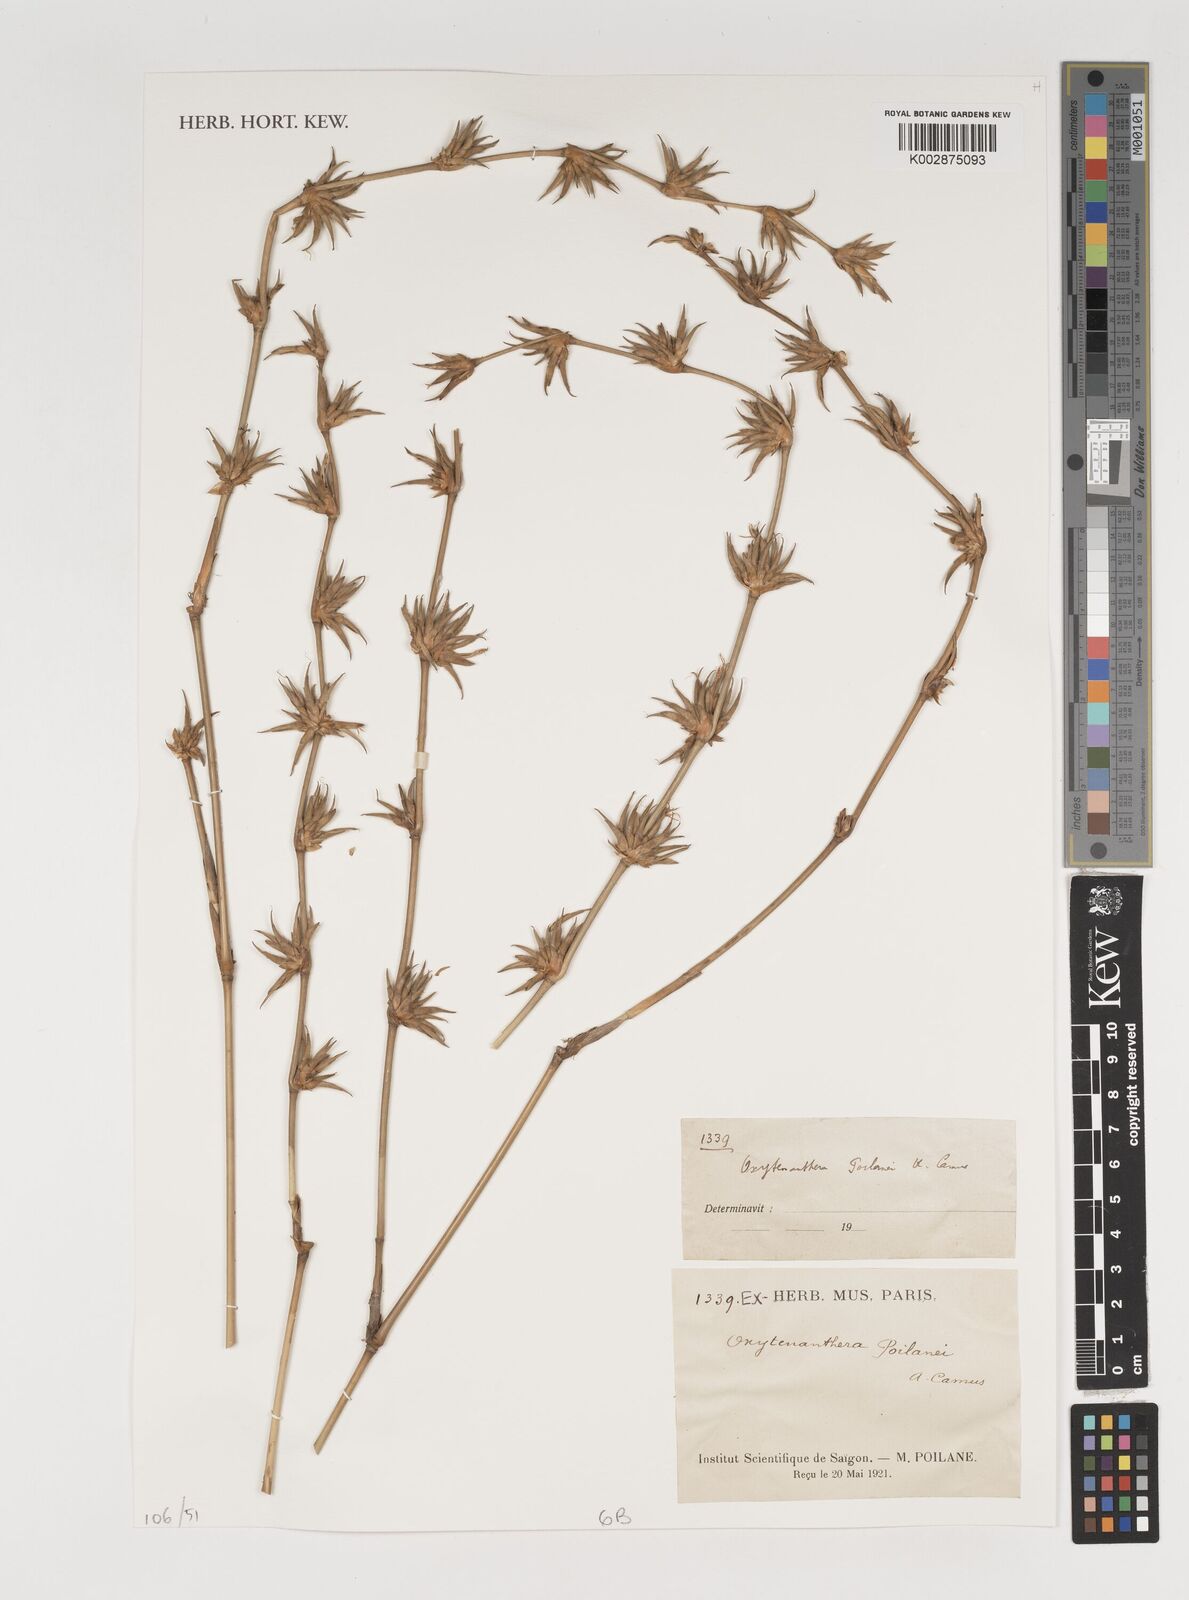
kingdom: Plantae
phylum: Tracheophyta
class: Liliopsida
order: Poales
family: Poaceae
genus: Oxytenanthera
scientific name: Oxytenanthera
